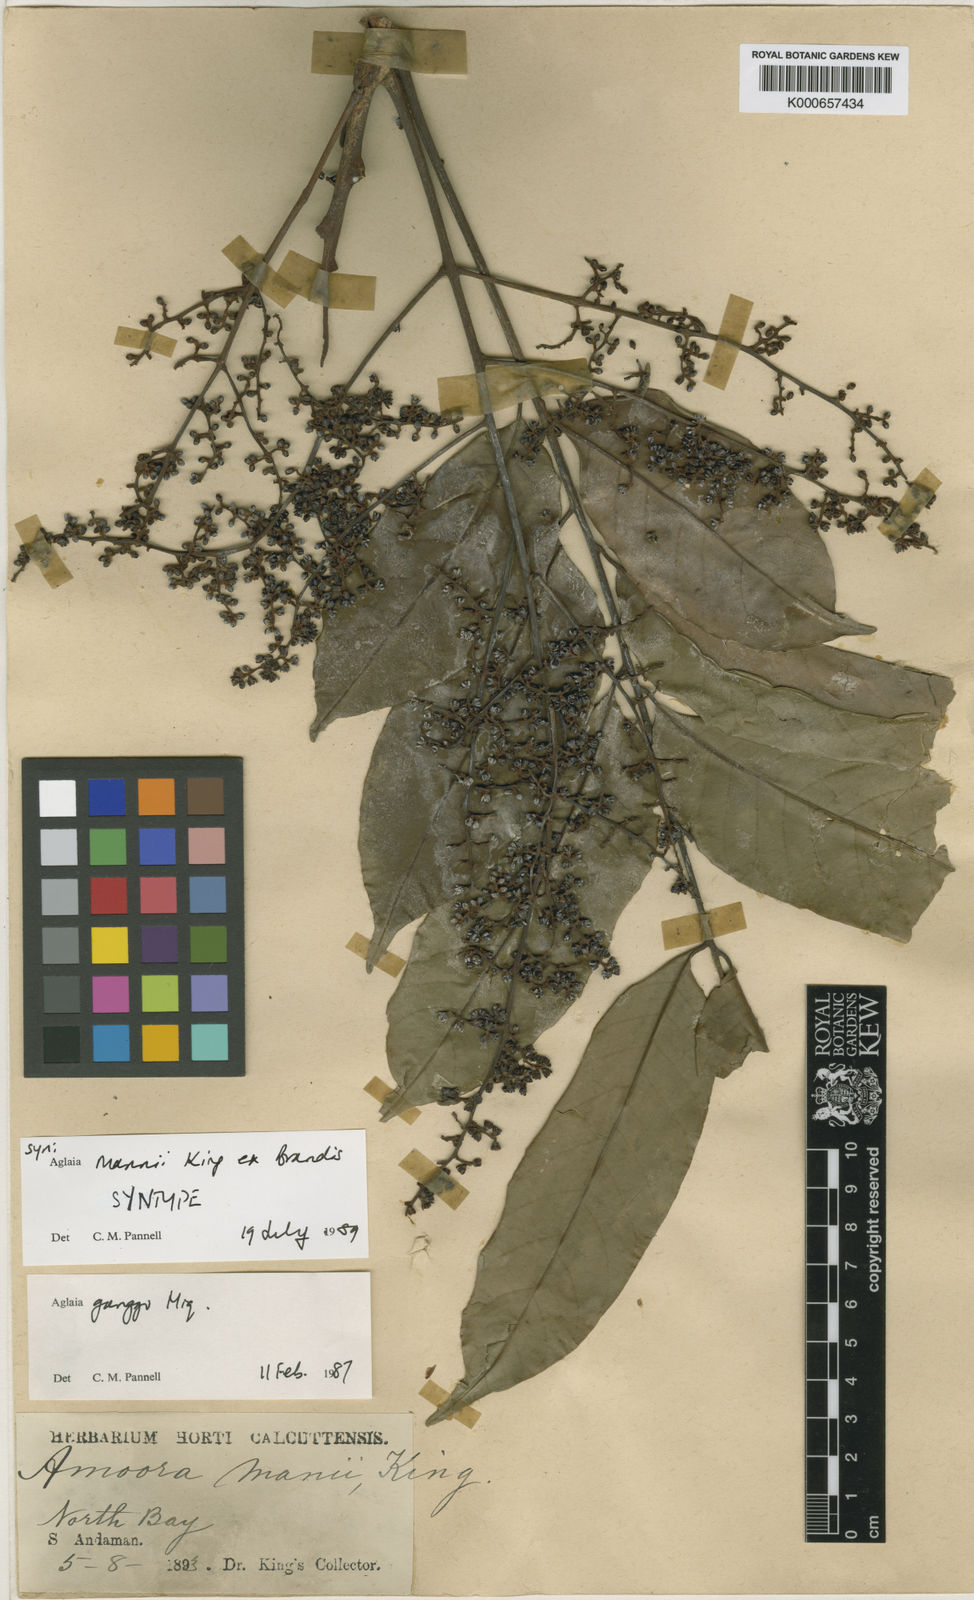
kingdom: Plantae
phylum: Tracheophyta
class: Magnoliopsida
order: Sapindales
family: Meliaceae
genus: Aglaia
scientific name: Aglaia silvestris
